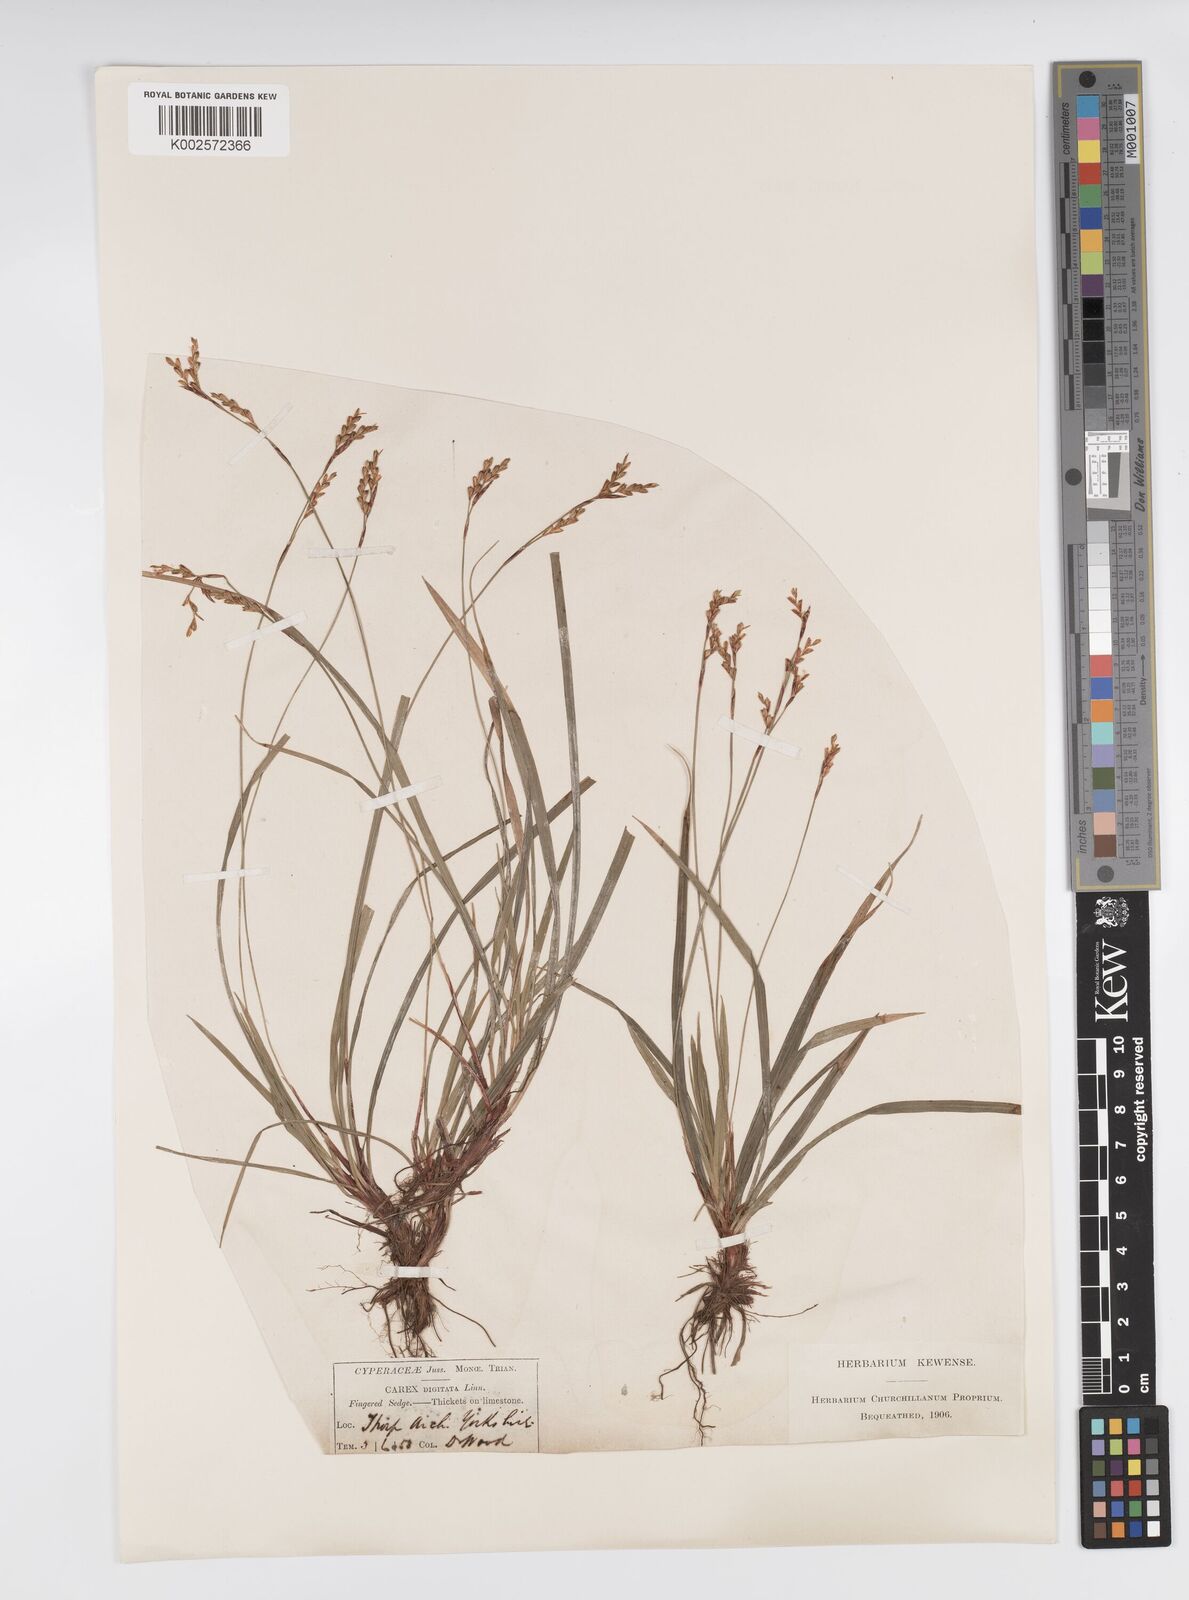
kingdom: Plantae
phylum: Tracheophyta
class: Liliopsida
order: Poales
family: Cyperaceae
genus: Carex
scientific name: Carex digitata
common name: Fingered sedge
